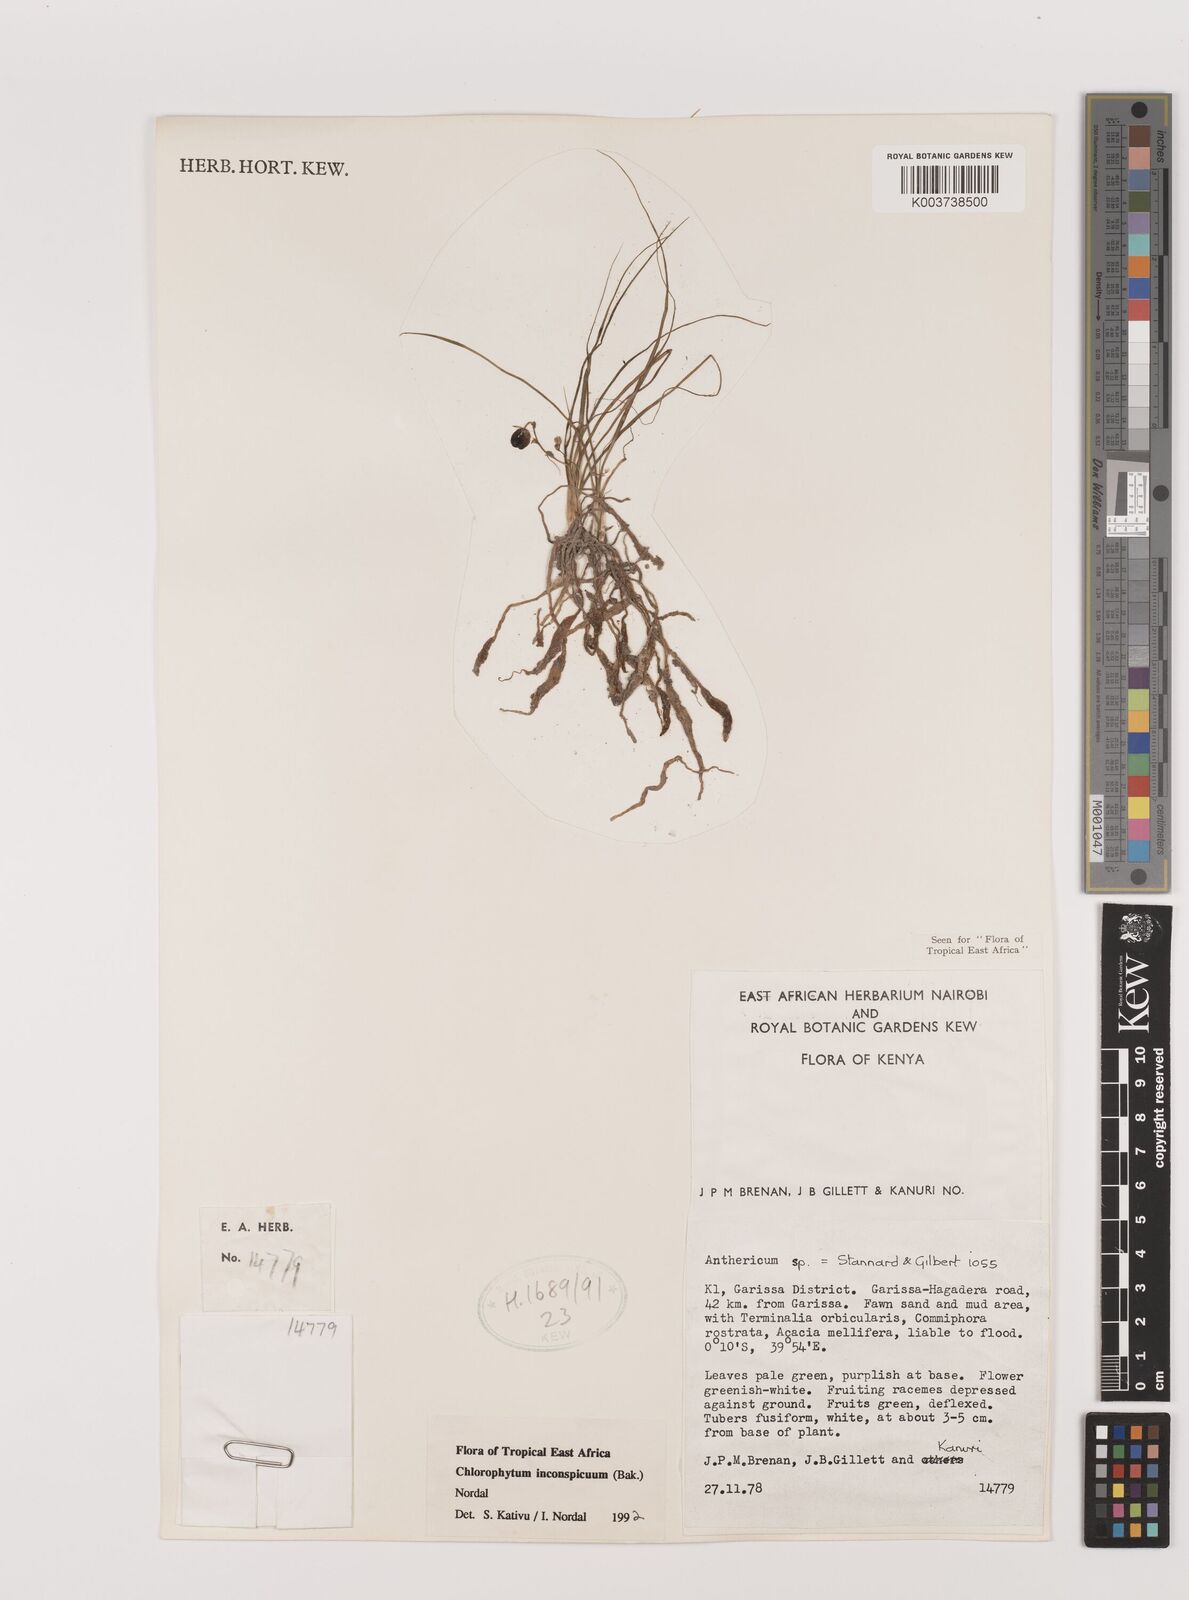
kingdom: Plantae
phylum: Tracheophyta
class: Liliopsida
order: Asparagales
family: Asparagaceae
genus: Chlorophytum
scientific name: Chlorophytum inconspicuum
